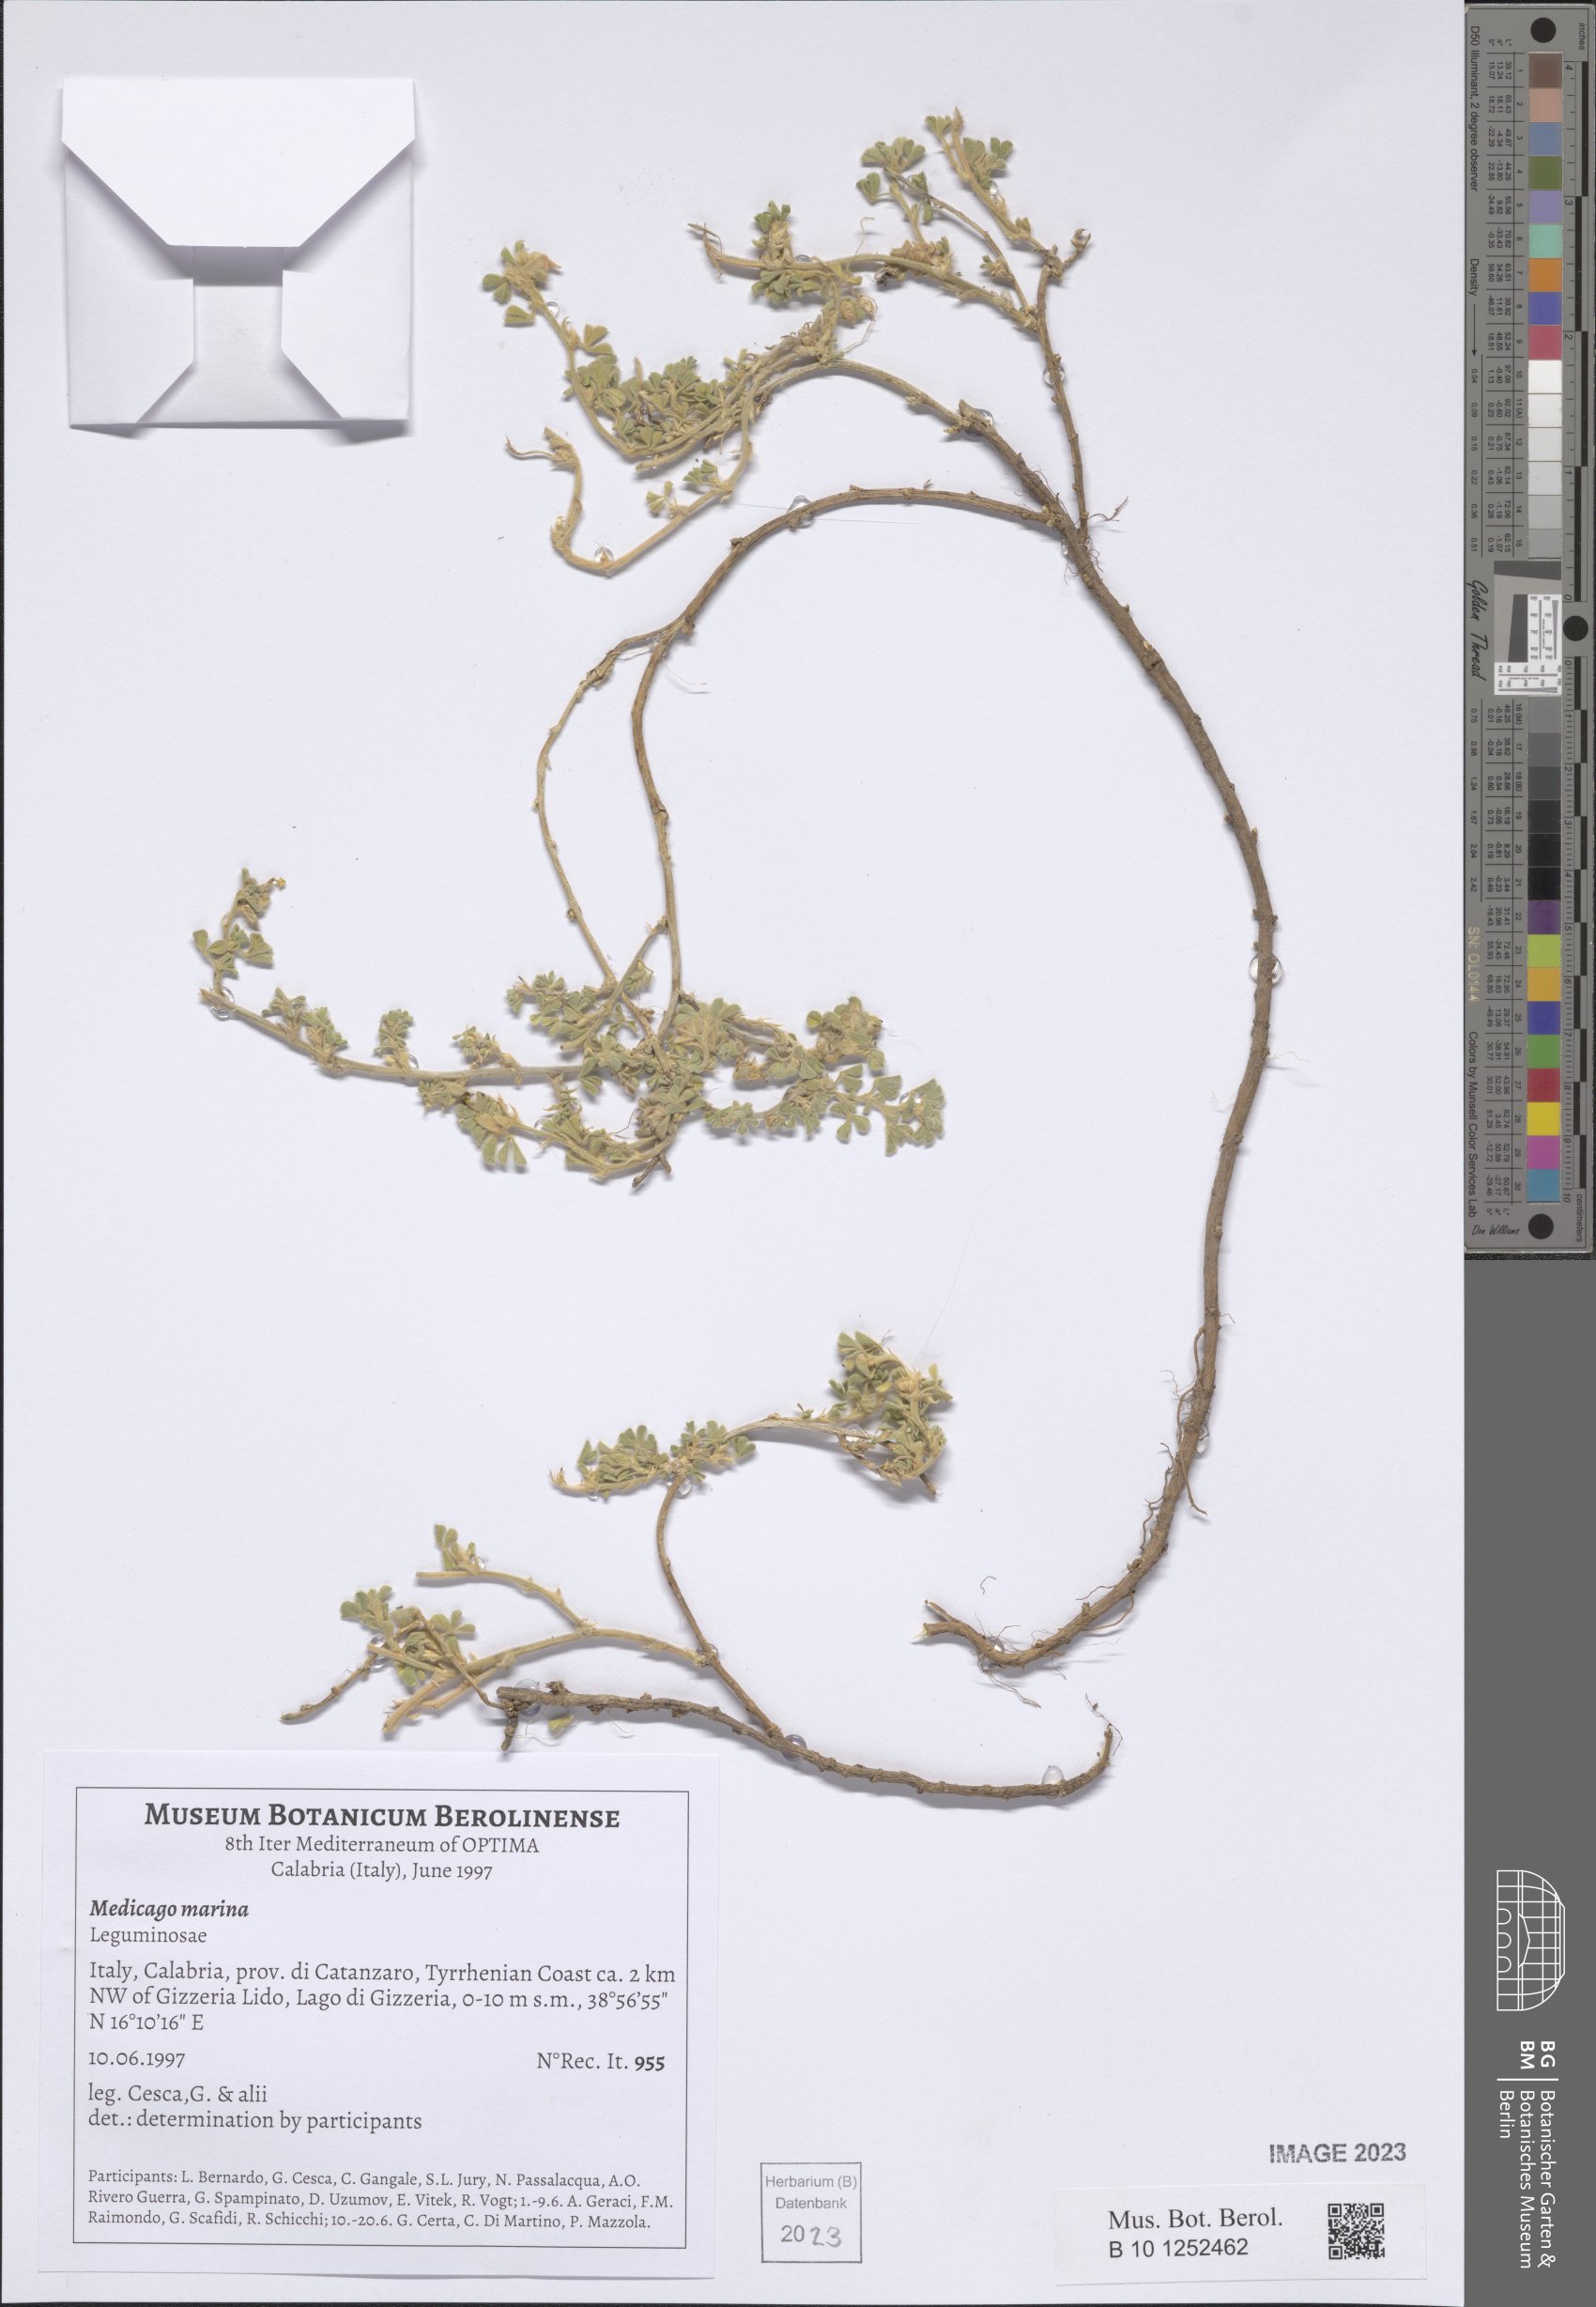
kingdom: Plantae
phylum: Tracheophyta
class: Magnoliopsida
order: Fabales
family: Fabaceae
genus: Medicago
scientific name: Medicago marina
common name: Sea medick
